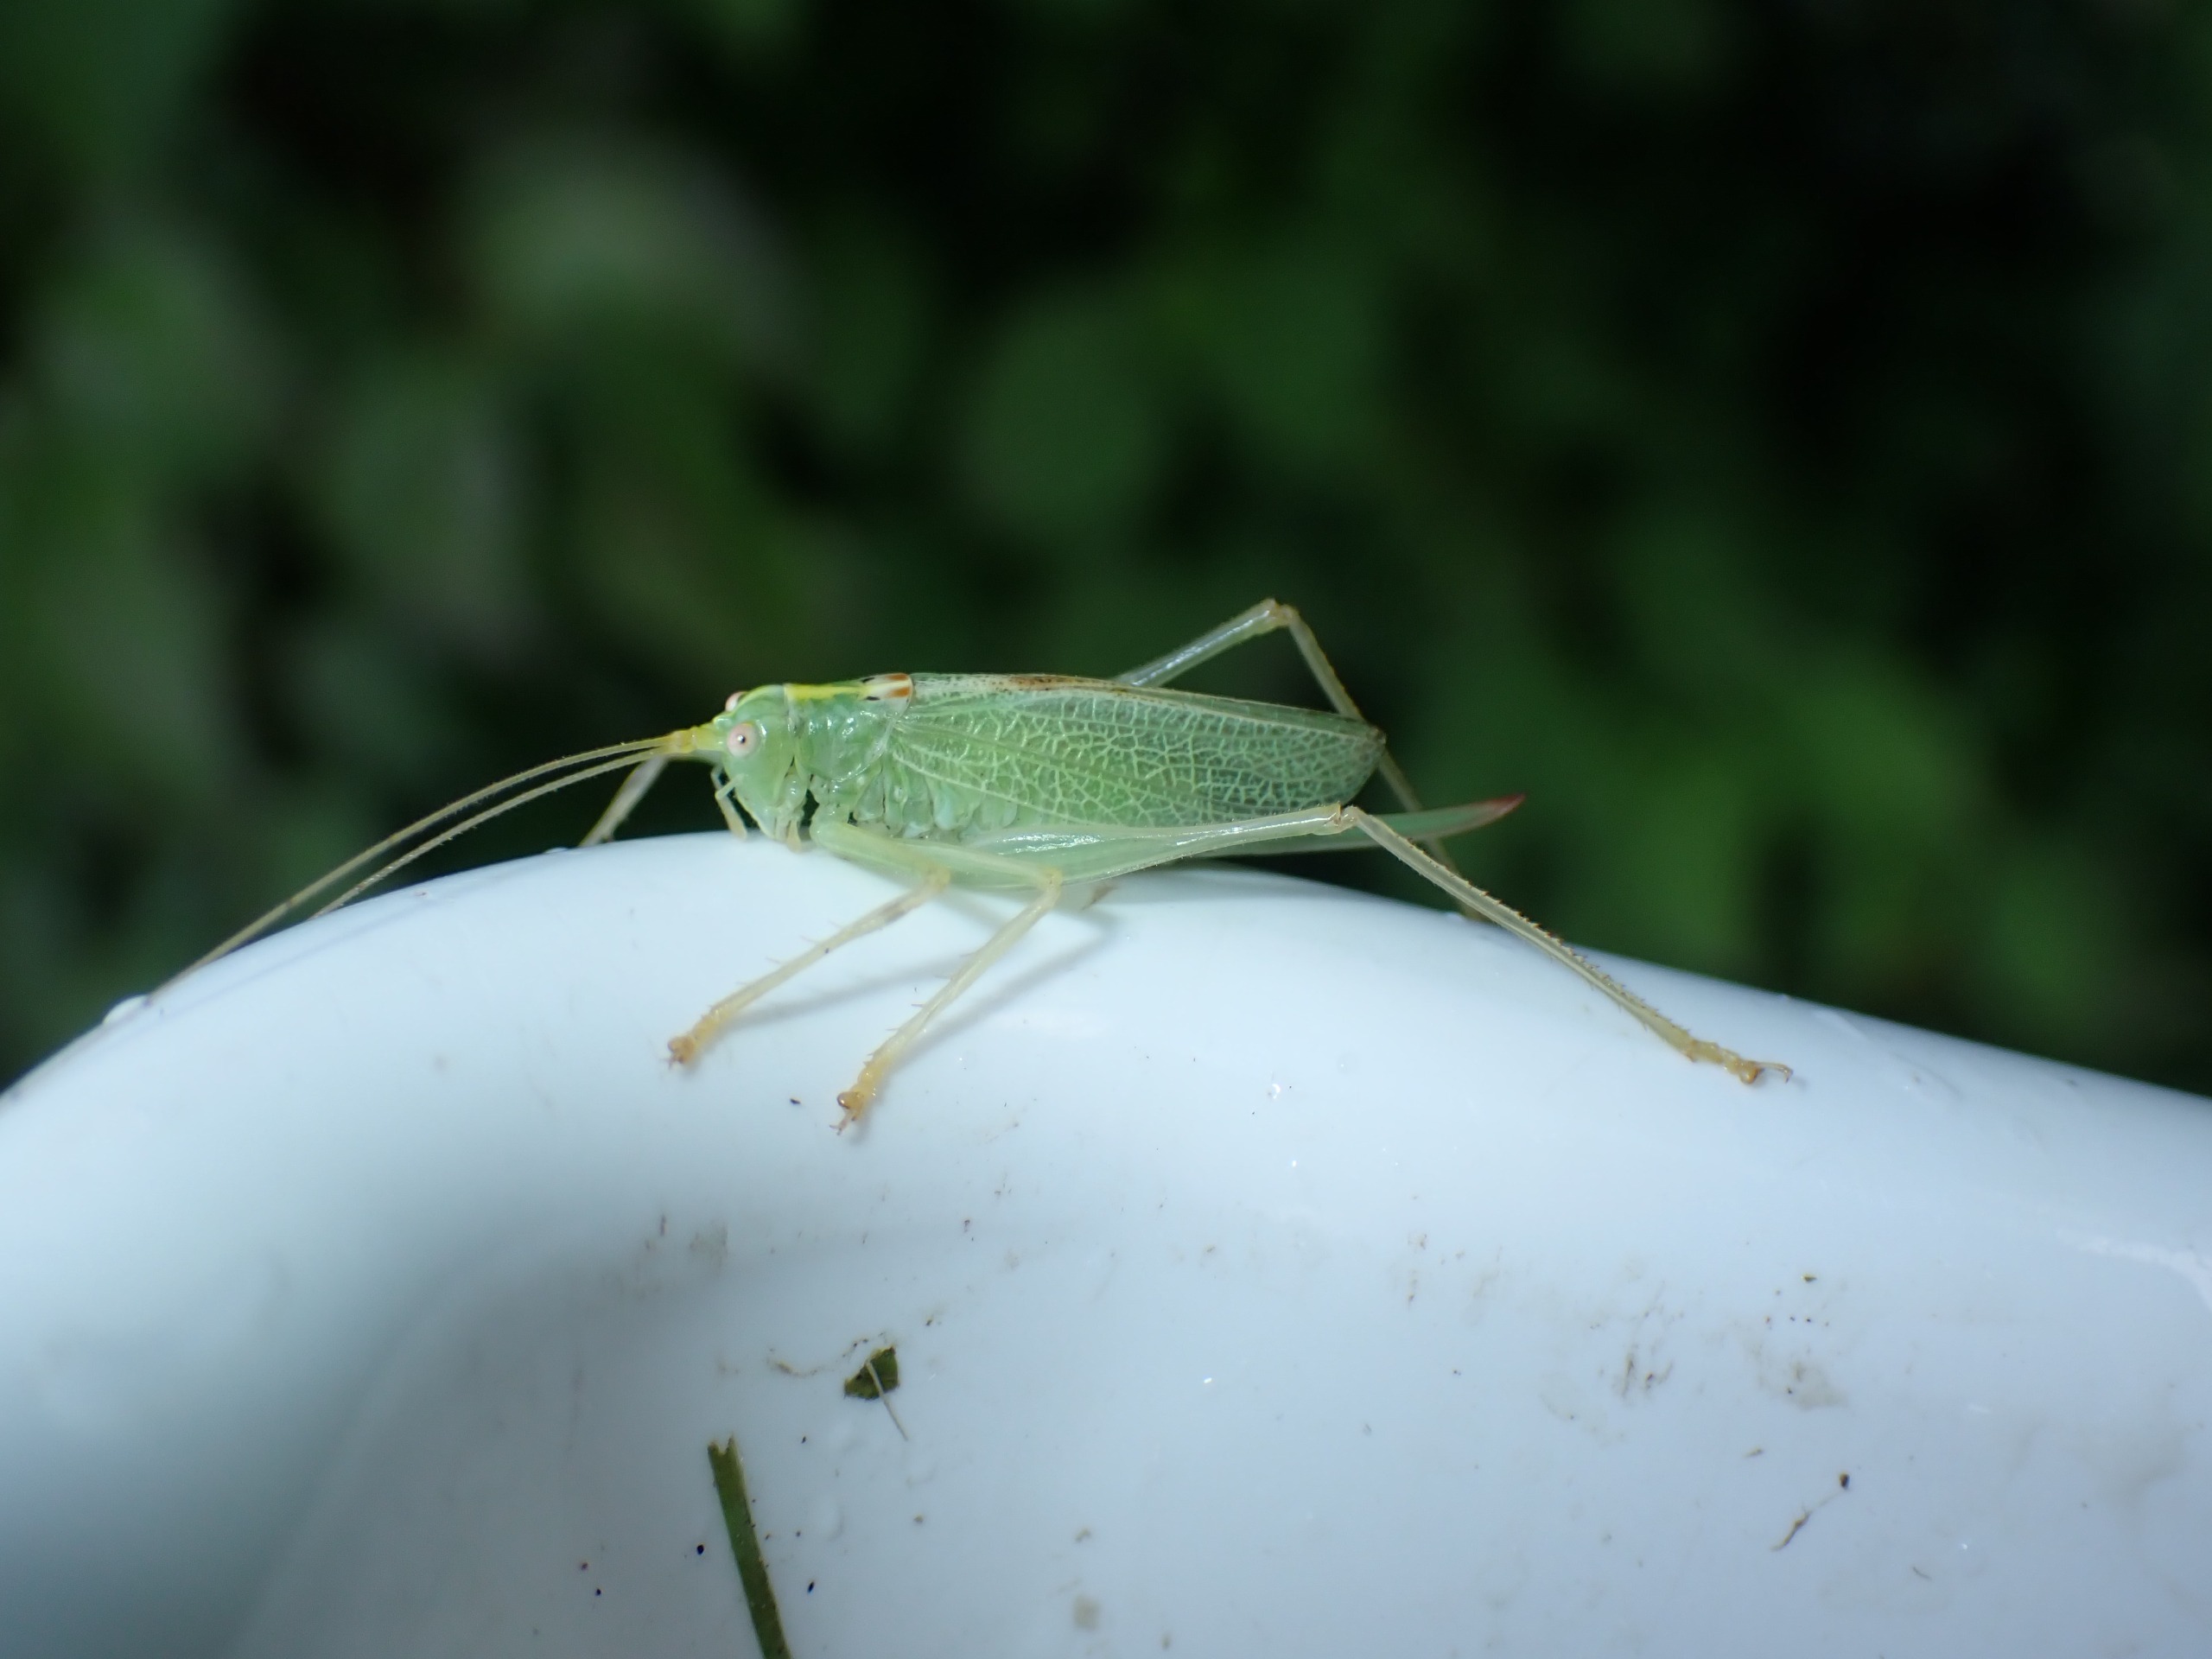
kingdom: Animalia
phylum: Arthropoda
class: Insecta
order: Orthoptera
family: Tettigoniidae
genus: Meconema
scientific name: Meconema thalassinum
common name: Egegræshoppe
